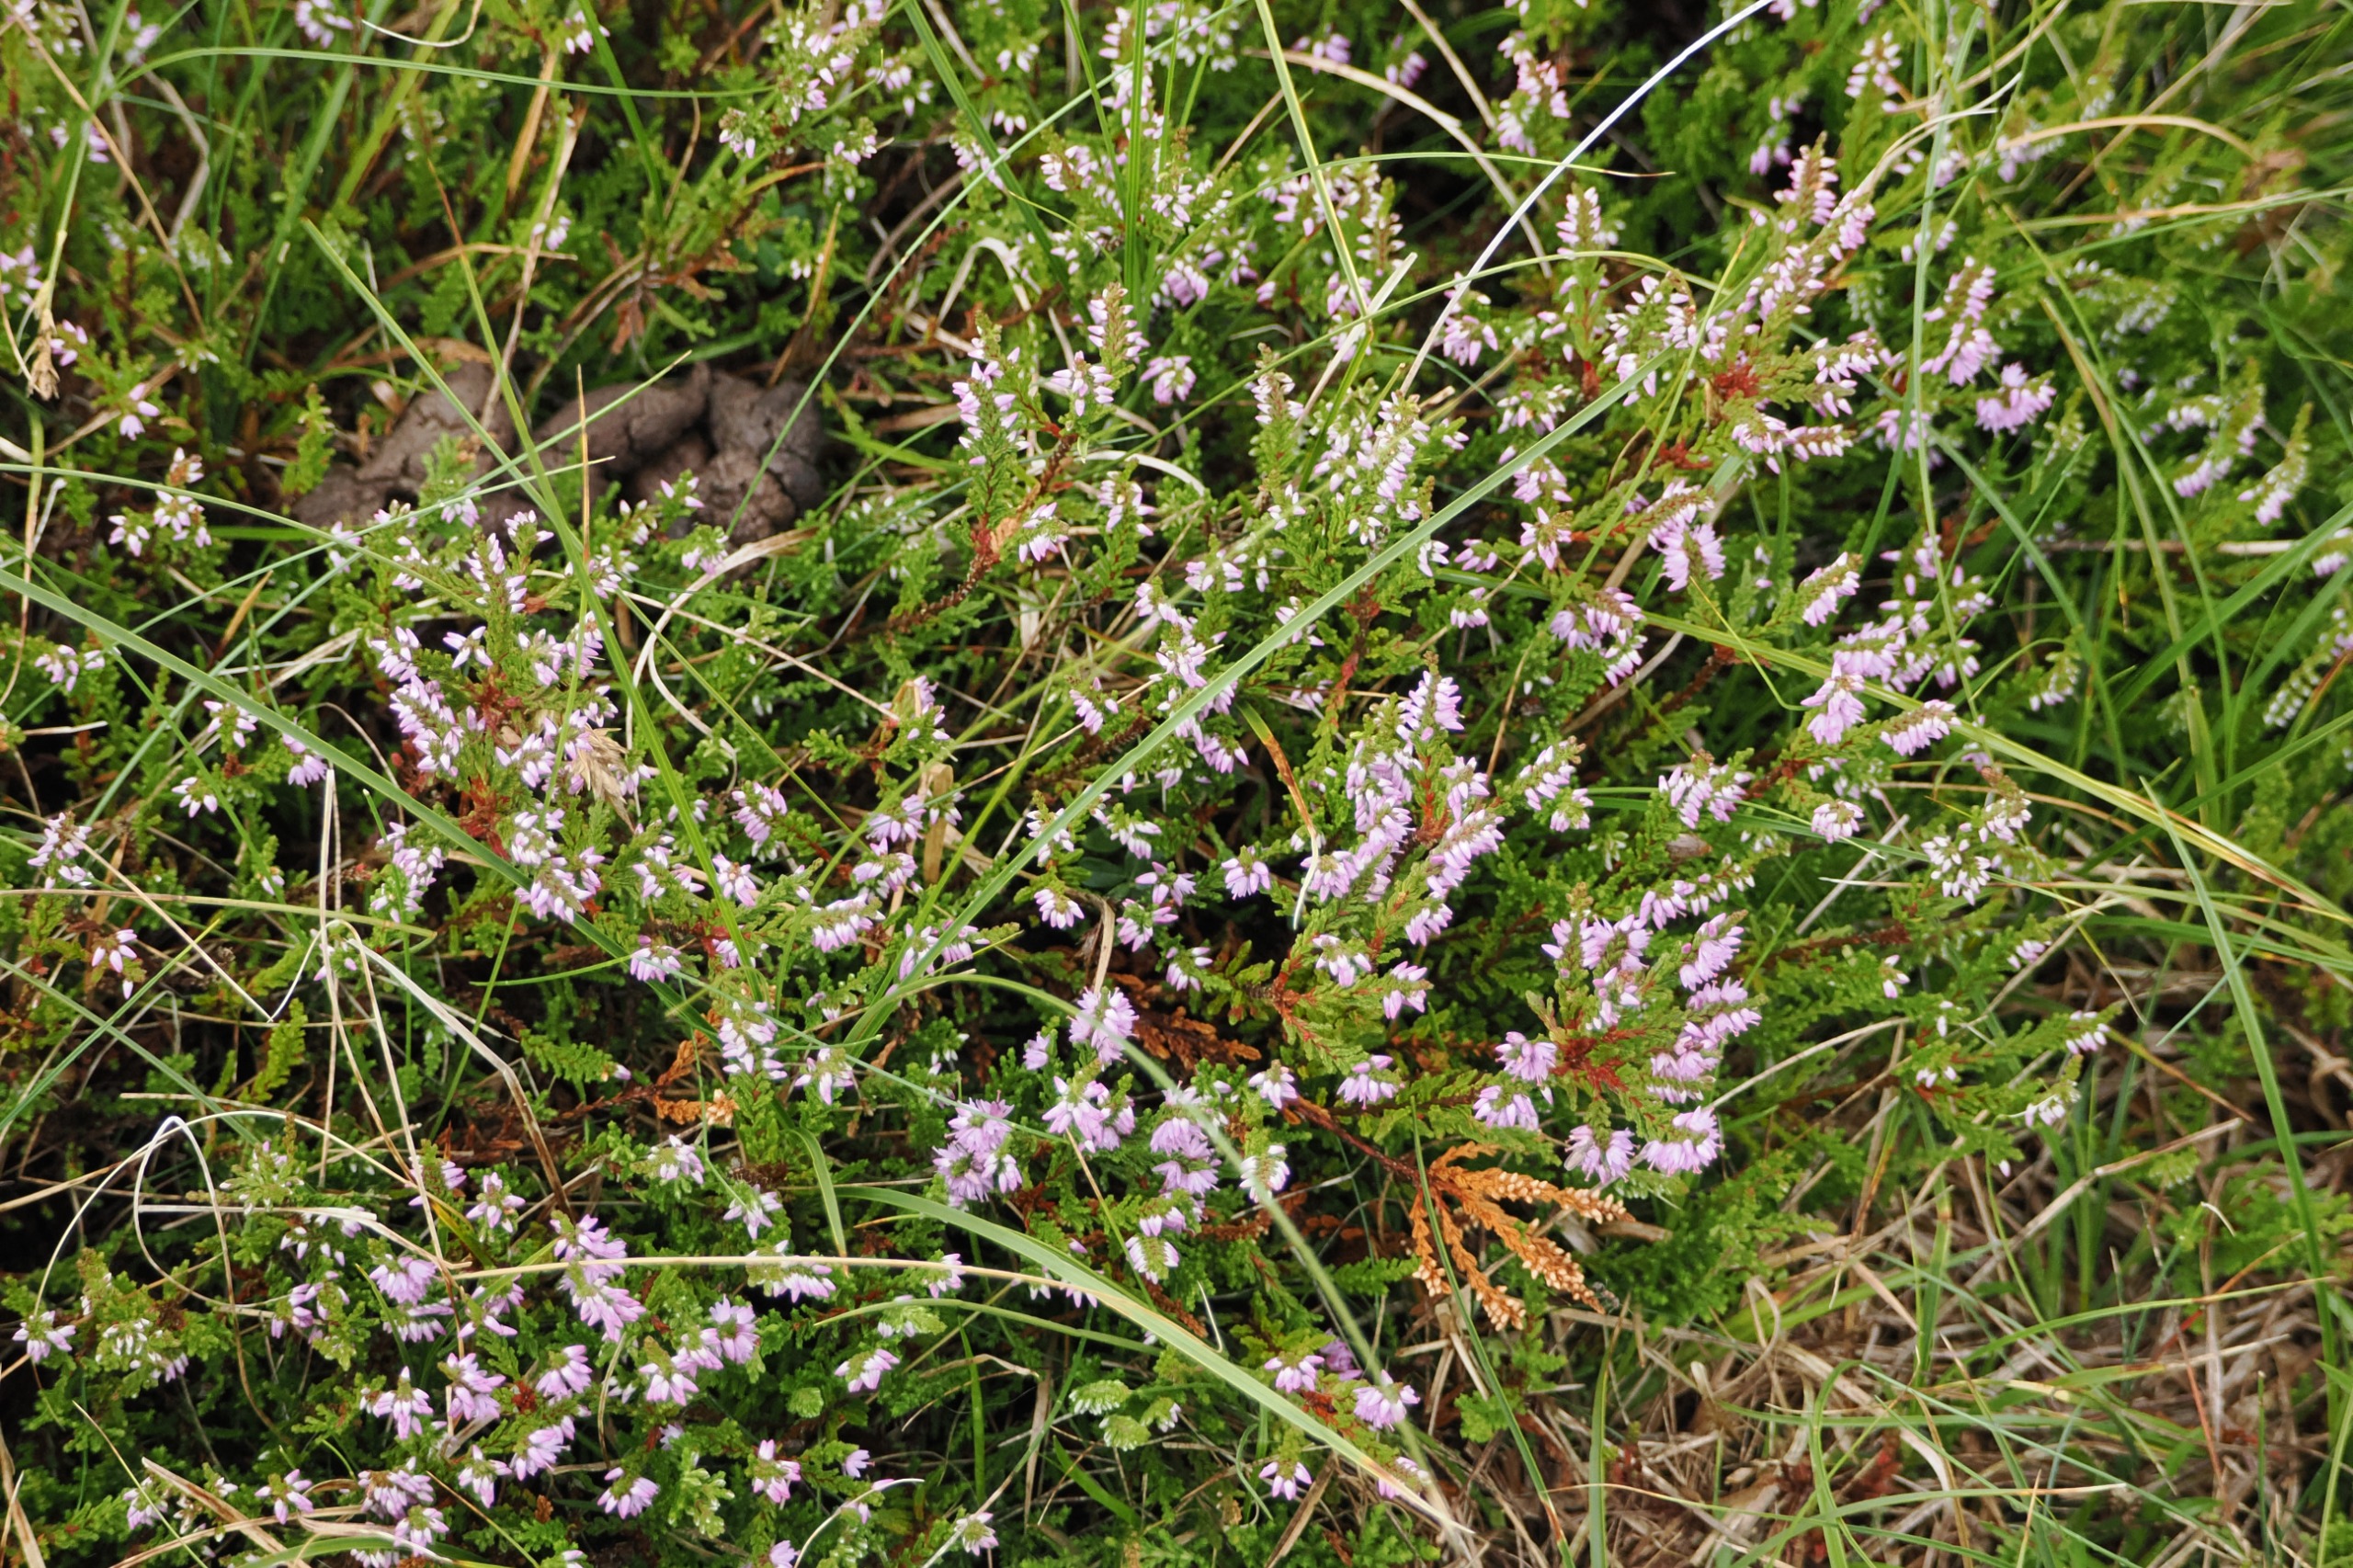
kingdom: Plantae
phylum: Tracheophyta
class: Magnoliopsida
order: Ericales
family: Ericaceae
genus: Calluna
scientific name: Calluna vulgaris
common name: Hedelyng
